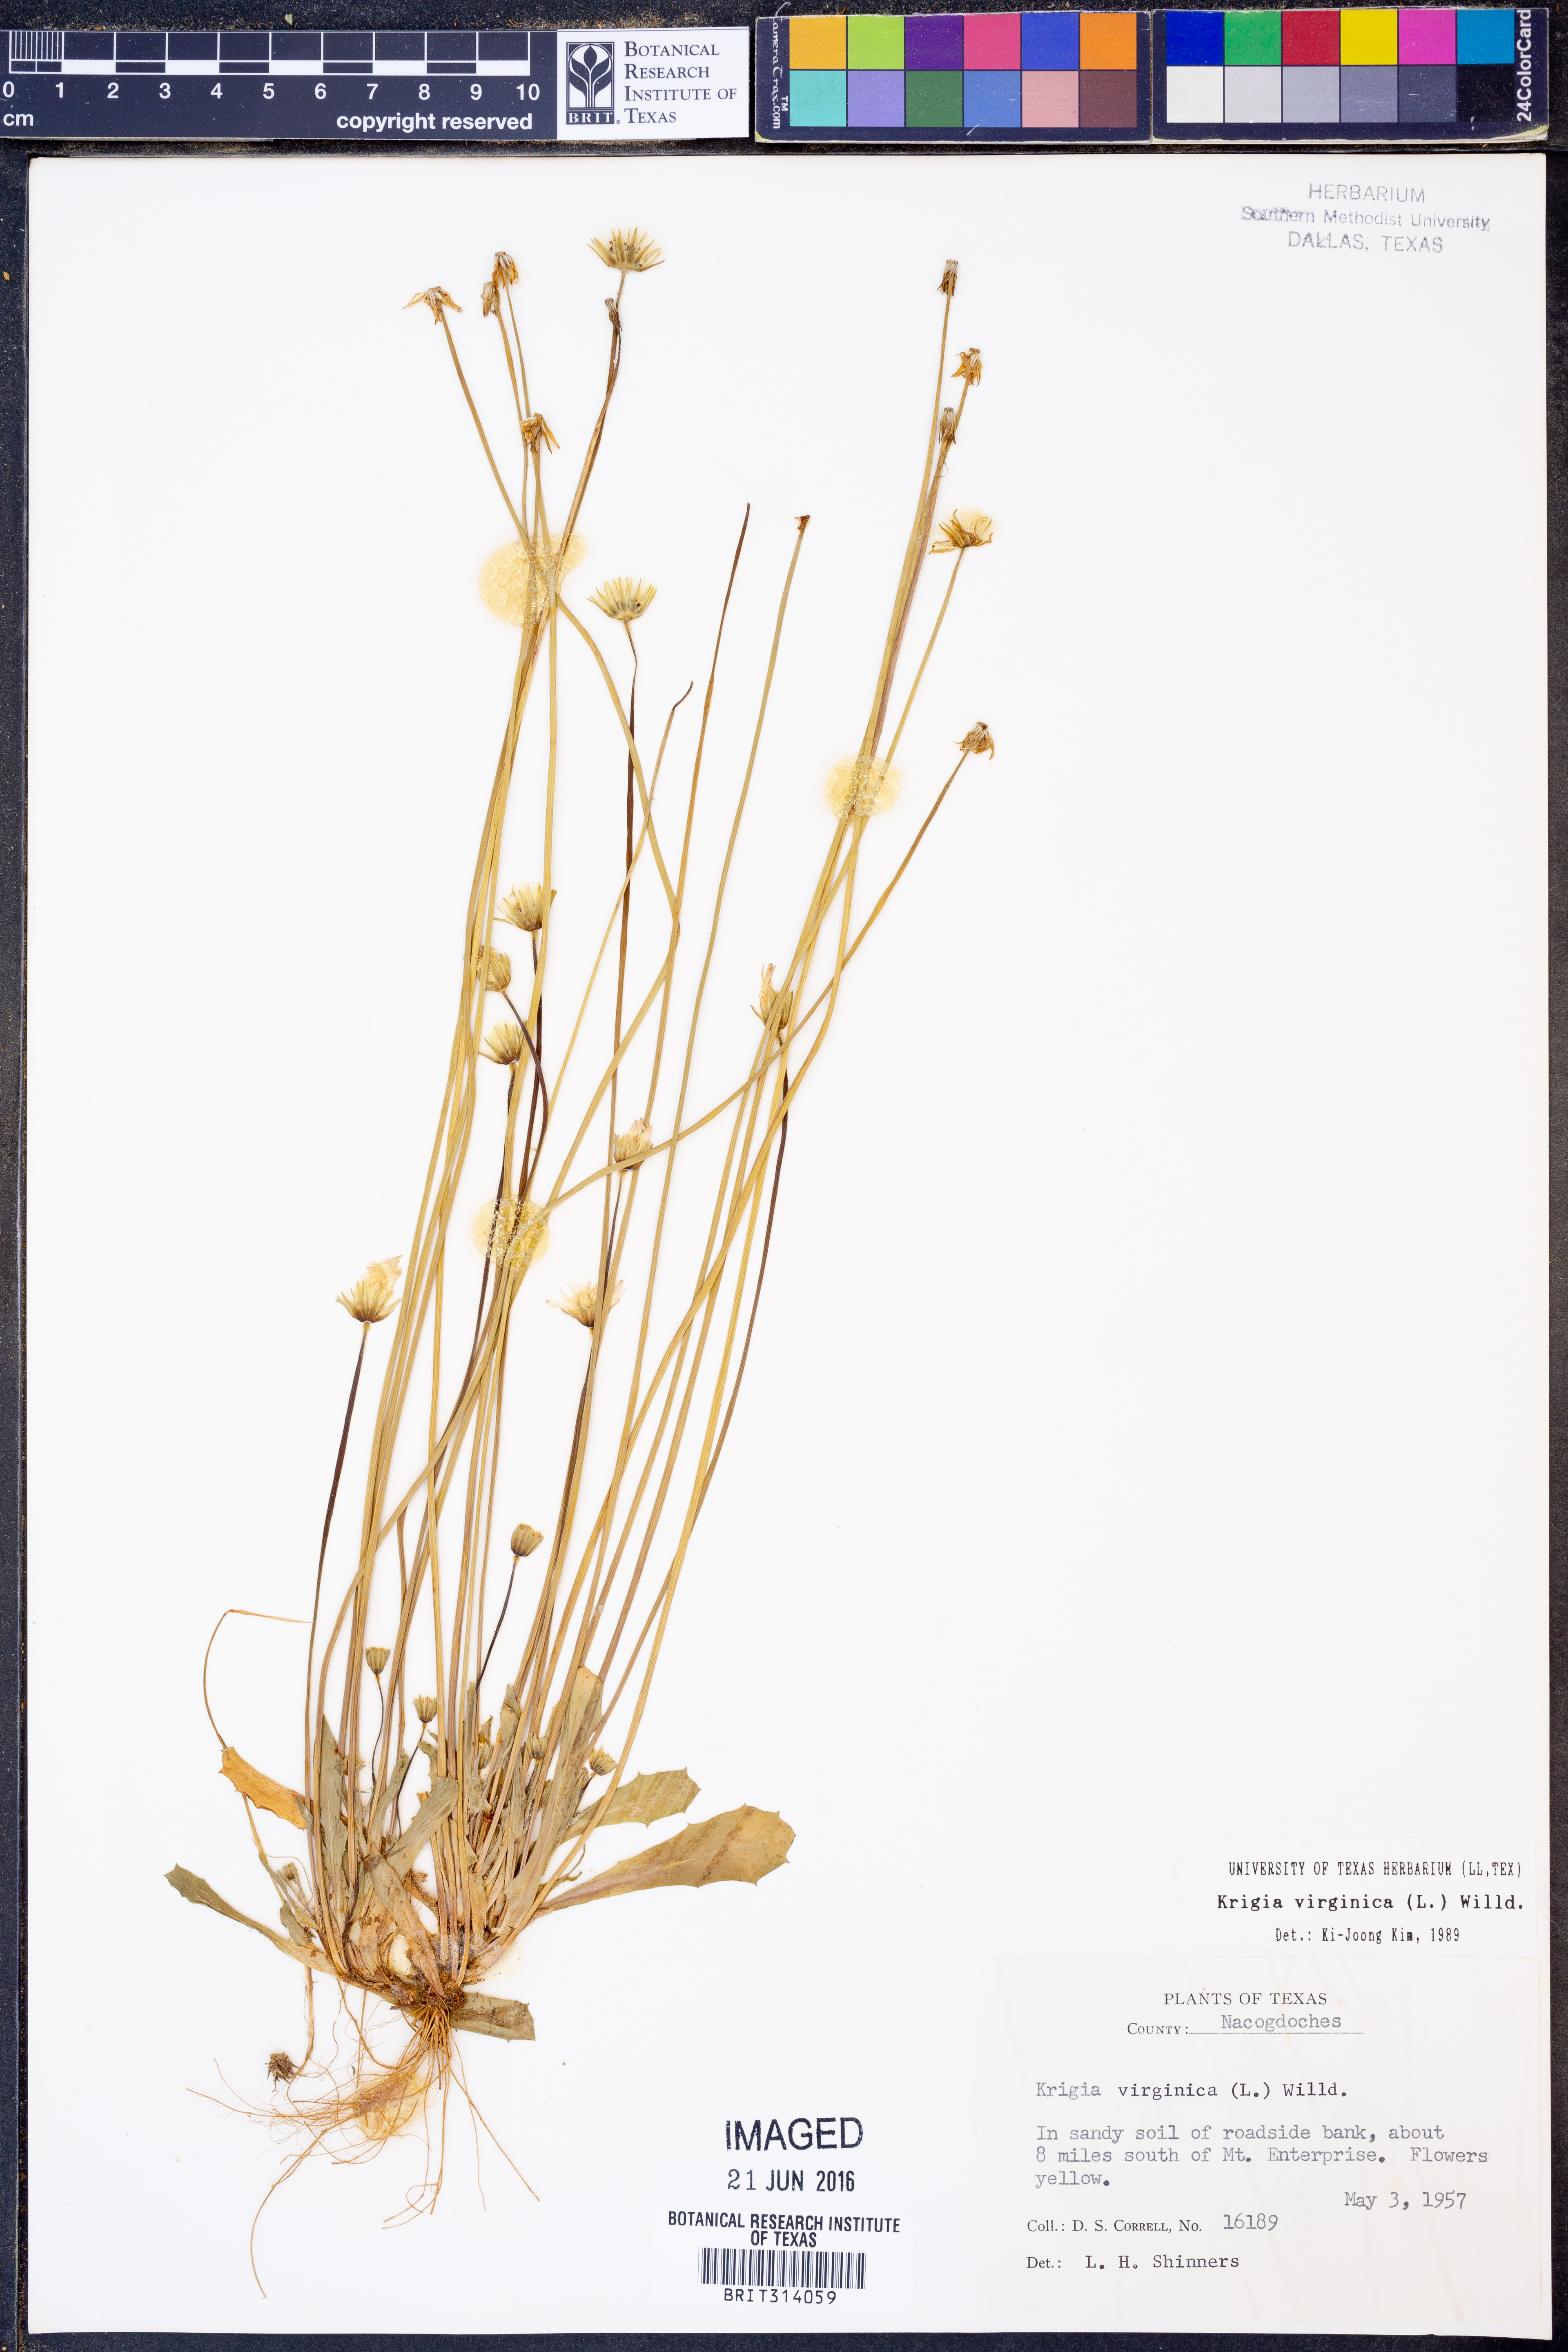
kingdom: Plantae
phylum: Tracheophyta
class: Magnoliopsida
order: Asterales
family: Asteraceae
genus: Krigia
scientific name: Krigia virginica
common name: Virginia dwarf-dandelion
